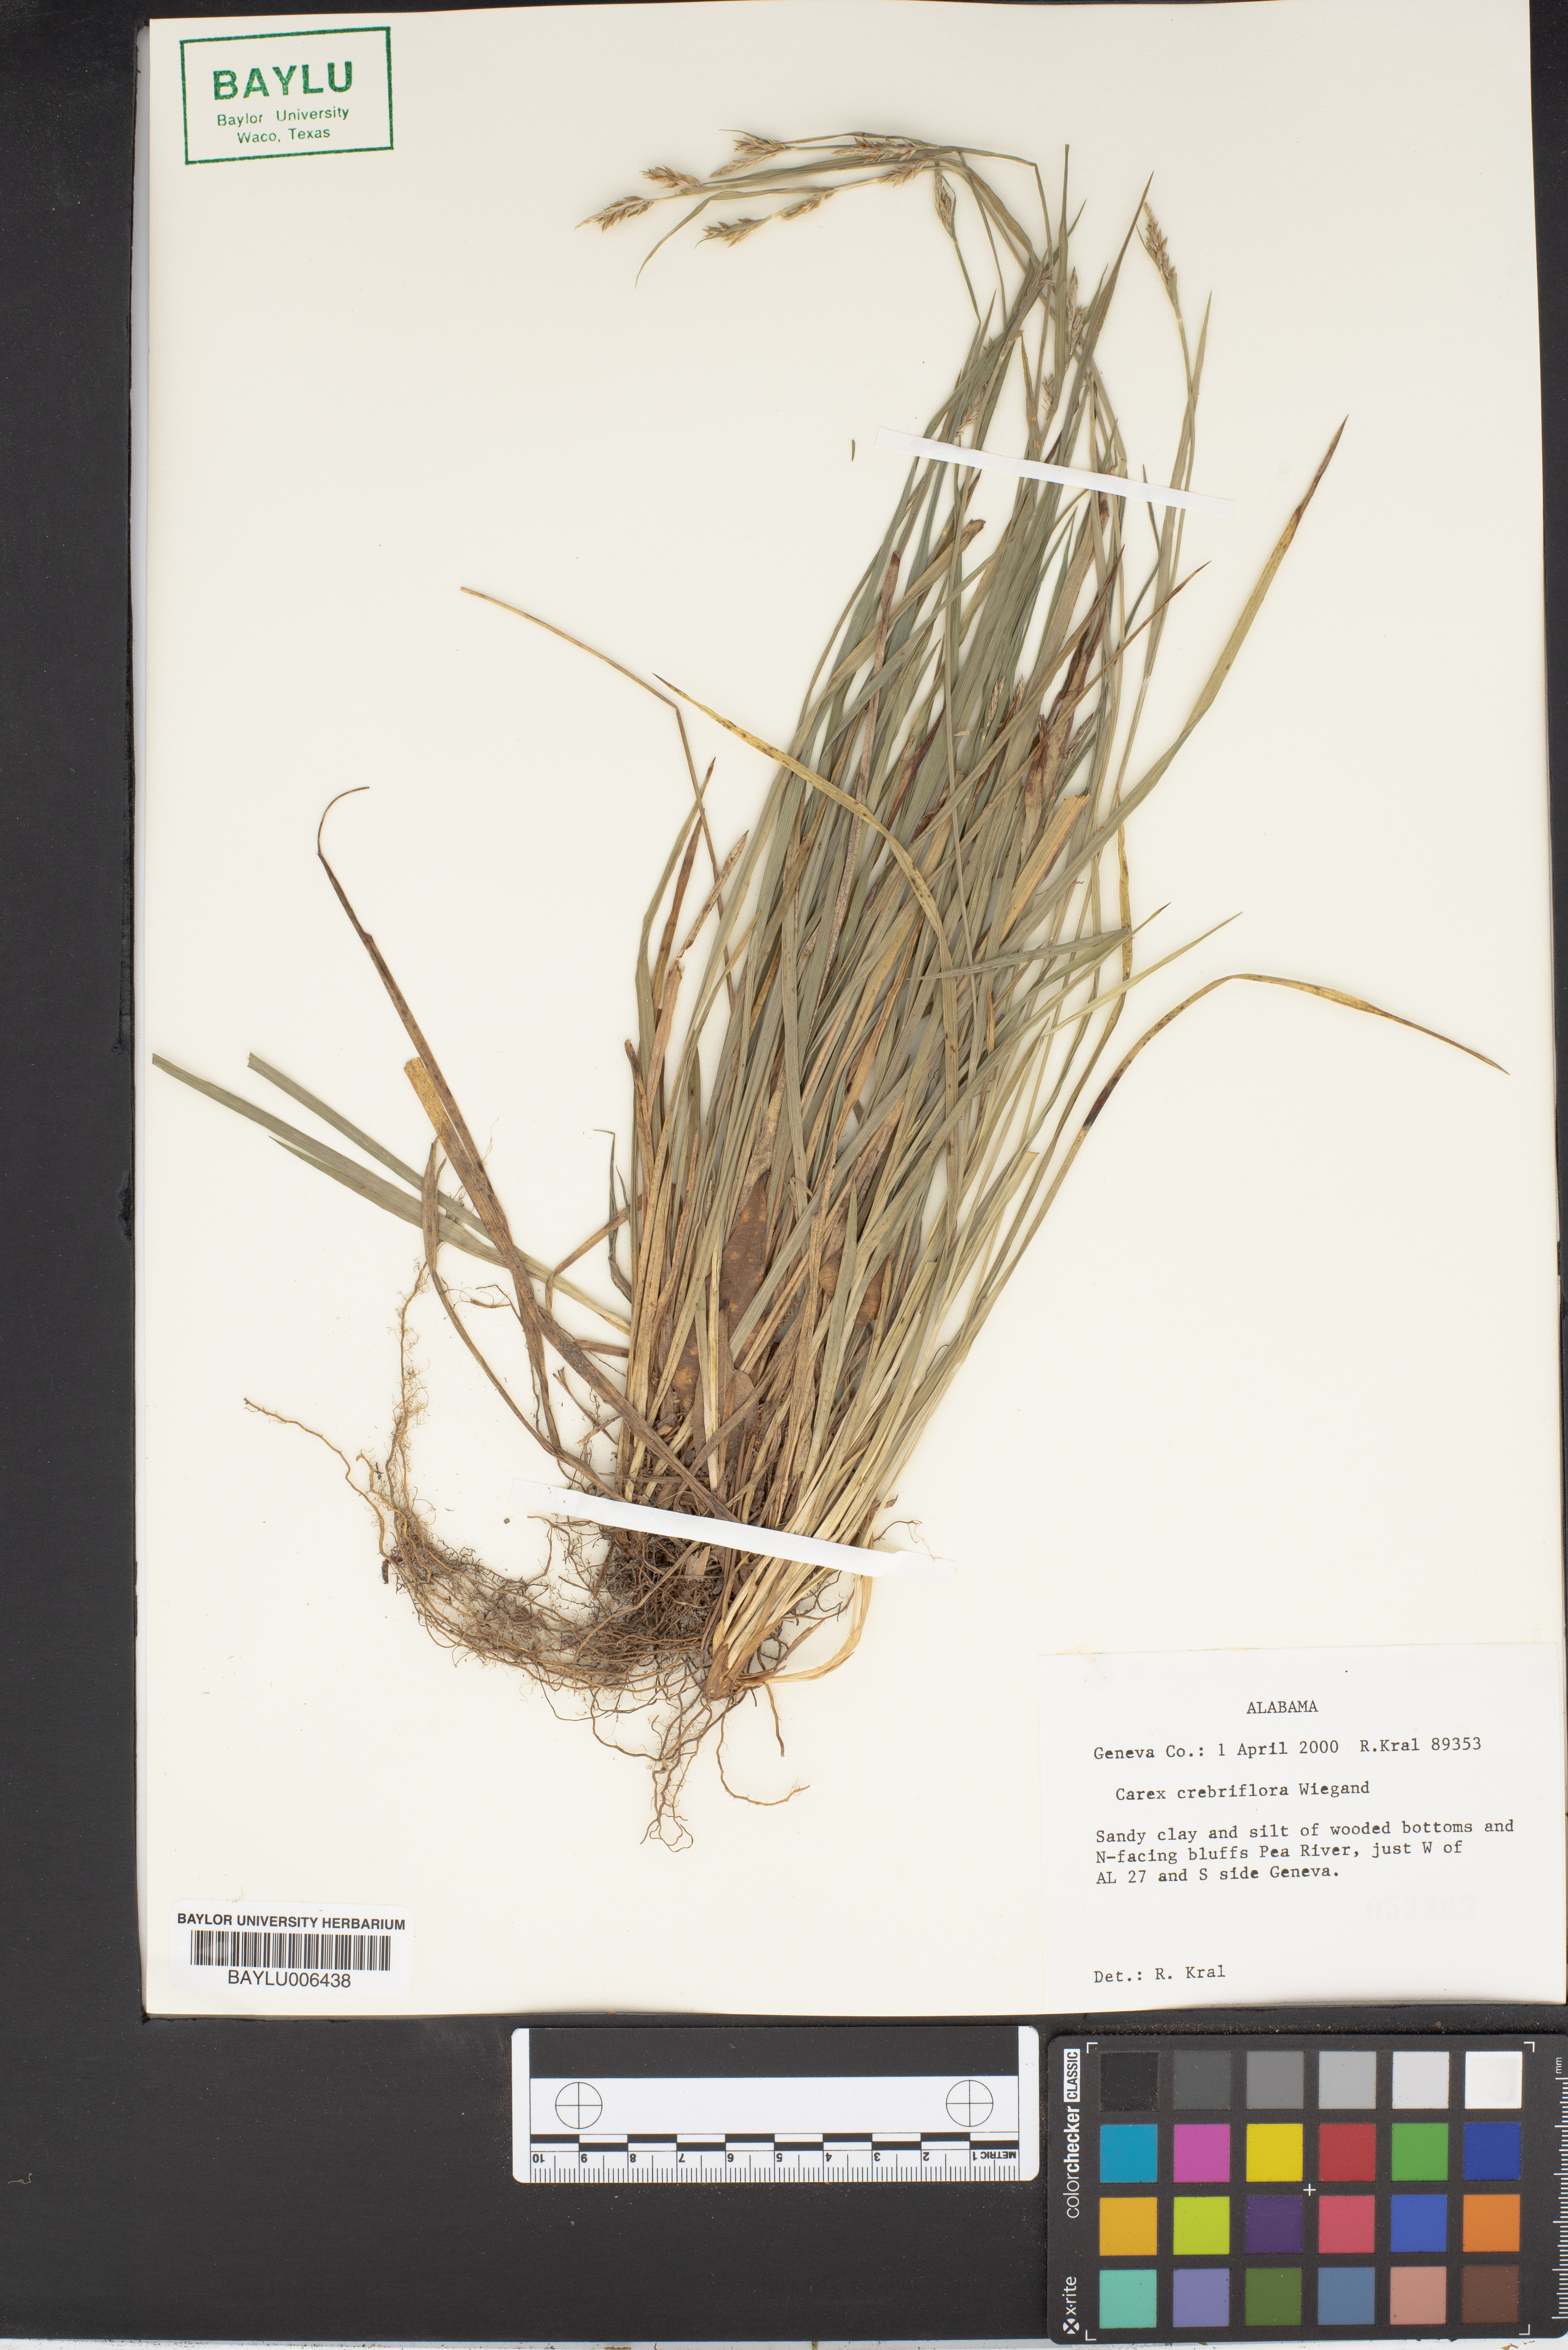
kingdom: Plantae
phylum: Tracheophyta
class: Liliopsida
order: Poales
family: Cyperaceae
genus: Carex
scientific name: Carex crebriflora
